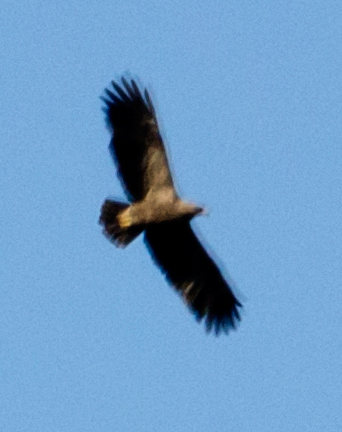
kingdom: Animalia
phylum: Chordata
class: Aves
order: Accipitriformes
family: Accipitridae
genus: Hieraaetus
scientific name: Hieraaetus pennatus
